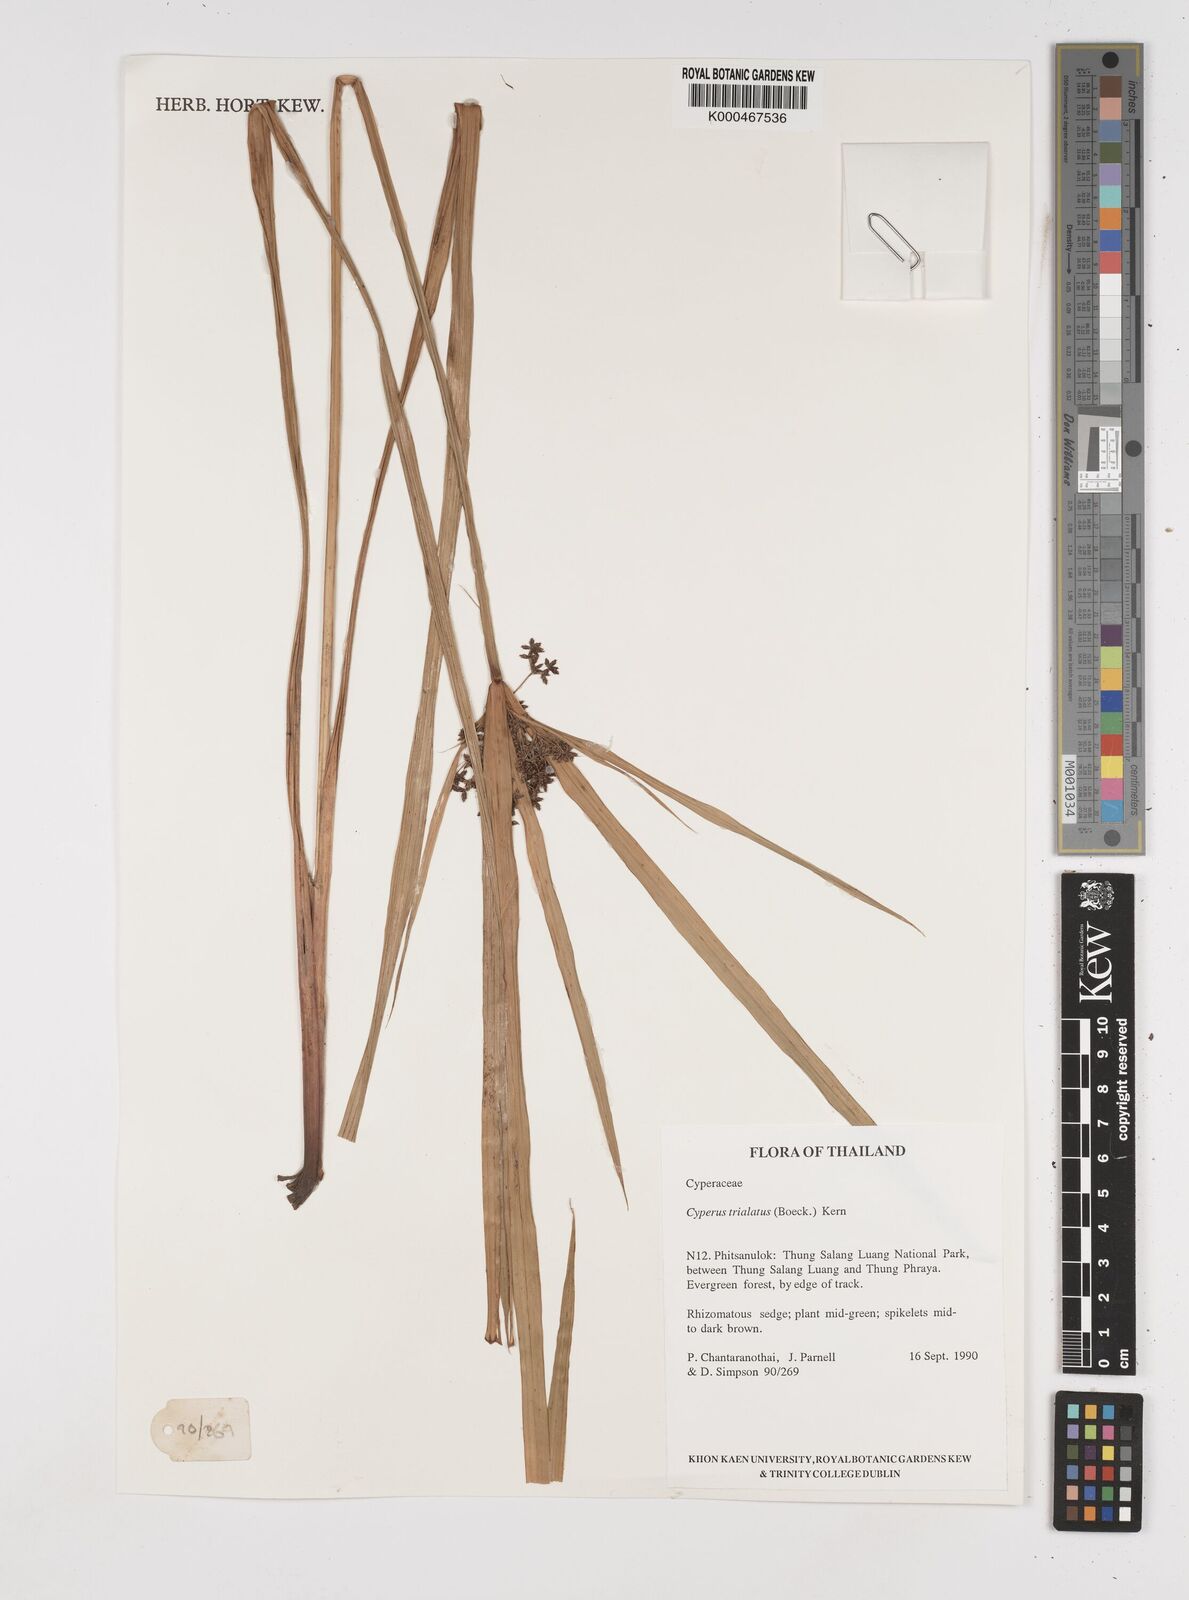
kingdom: Plantae
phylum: Tracheophyta
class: Liliopsida
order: Poales
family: Cyperaceae
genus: Cyperus
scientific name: Cyperus trialatus
